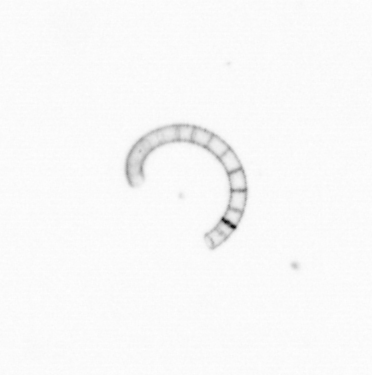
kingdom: Chromista
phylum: Ochrophyta
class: Bacillariophyceae
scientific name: Bacillariophyceae
